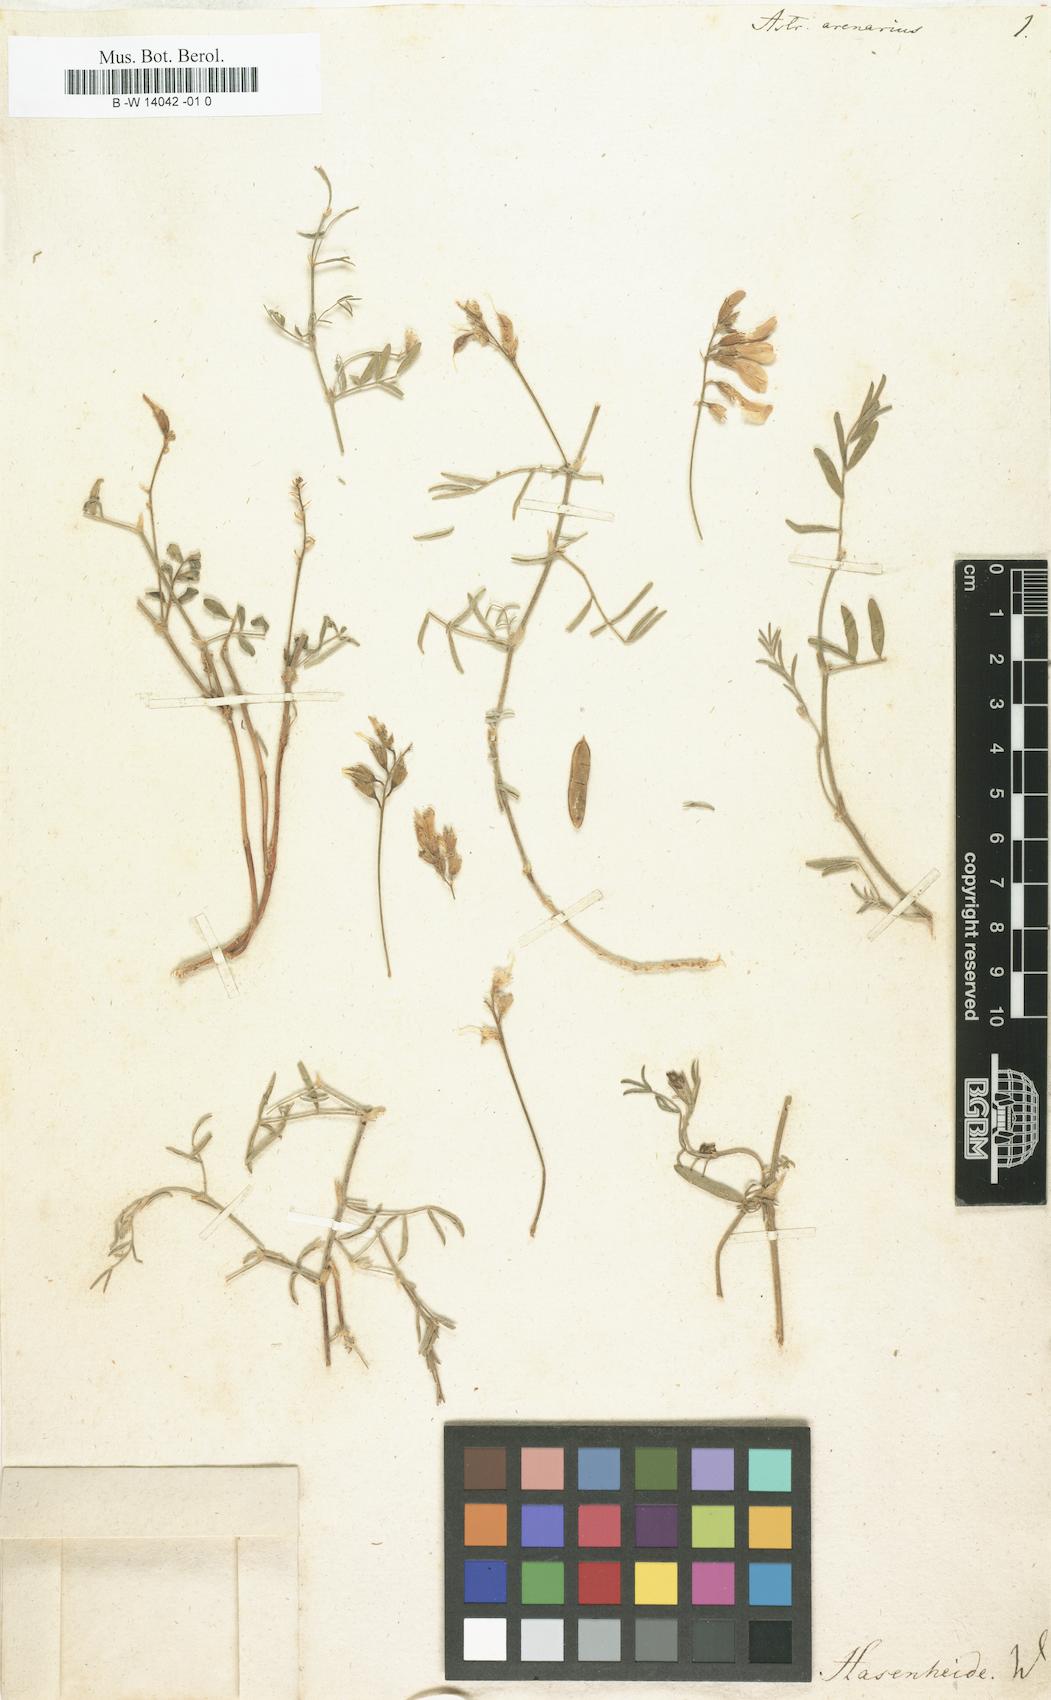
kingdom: Plantae
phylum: Tracheophyta
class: Magnoliopsida
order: Fabales
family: Fabaceae
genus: Astragalus
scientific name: Astragalus arenarius
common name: Arenarious milk-vetch
